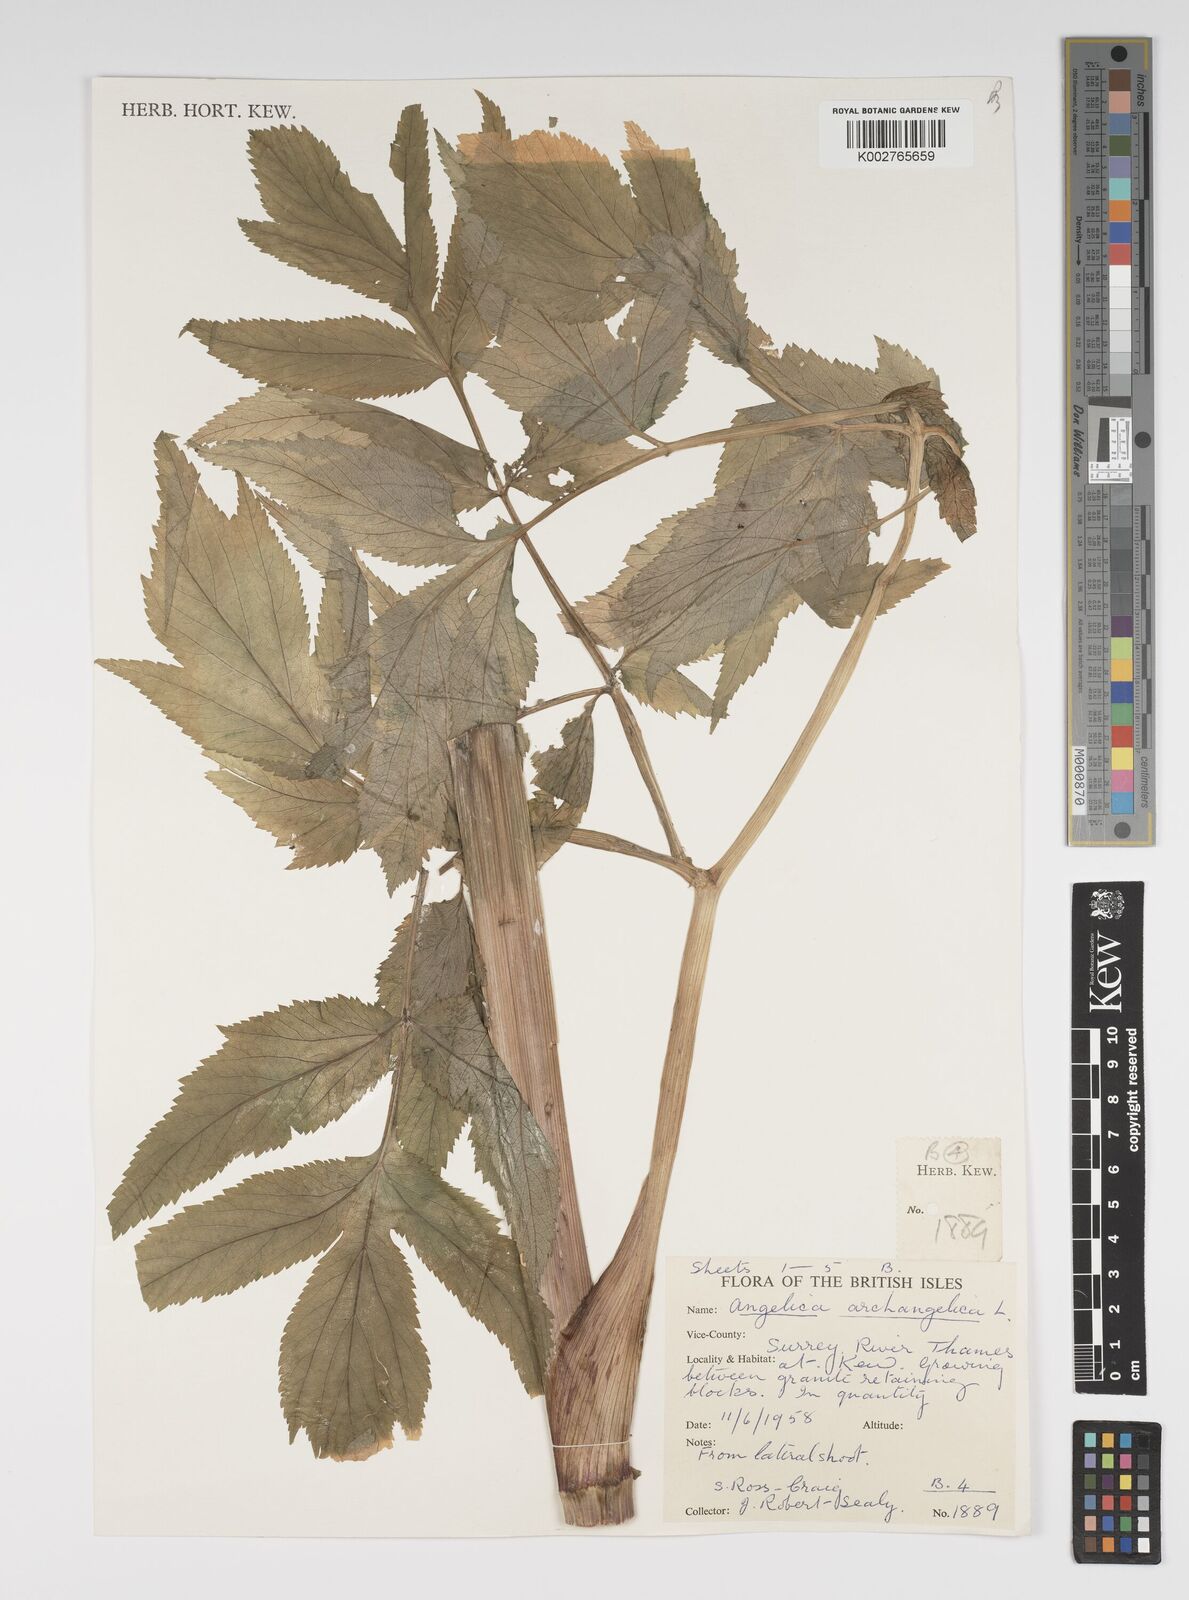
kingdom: Plantae
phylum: Tracheophyta
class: Magnoliopsida
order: Apiales
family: Apiaceae
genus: Angelica
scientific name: Angelica archangelica
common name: Garden angelica
